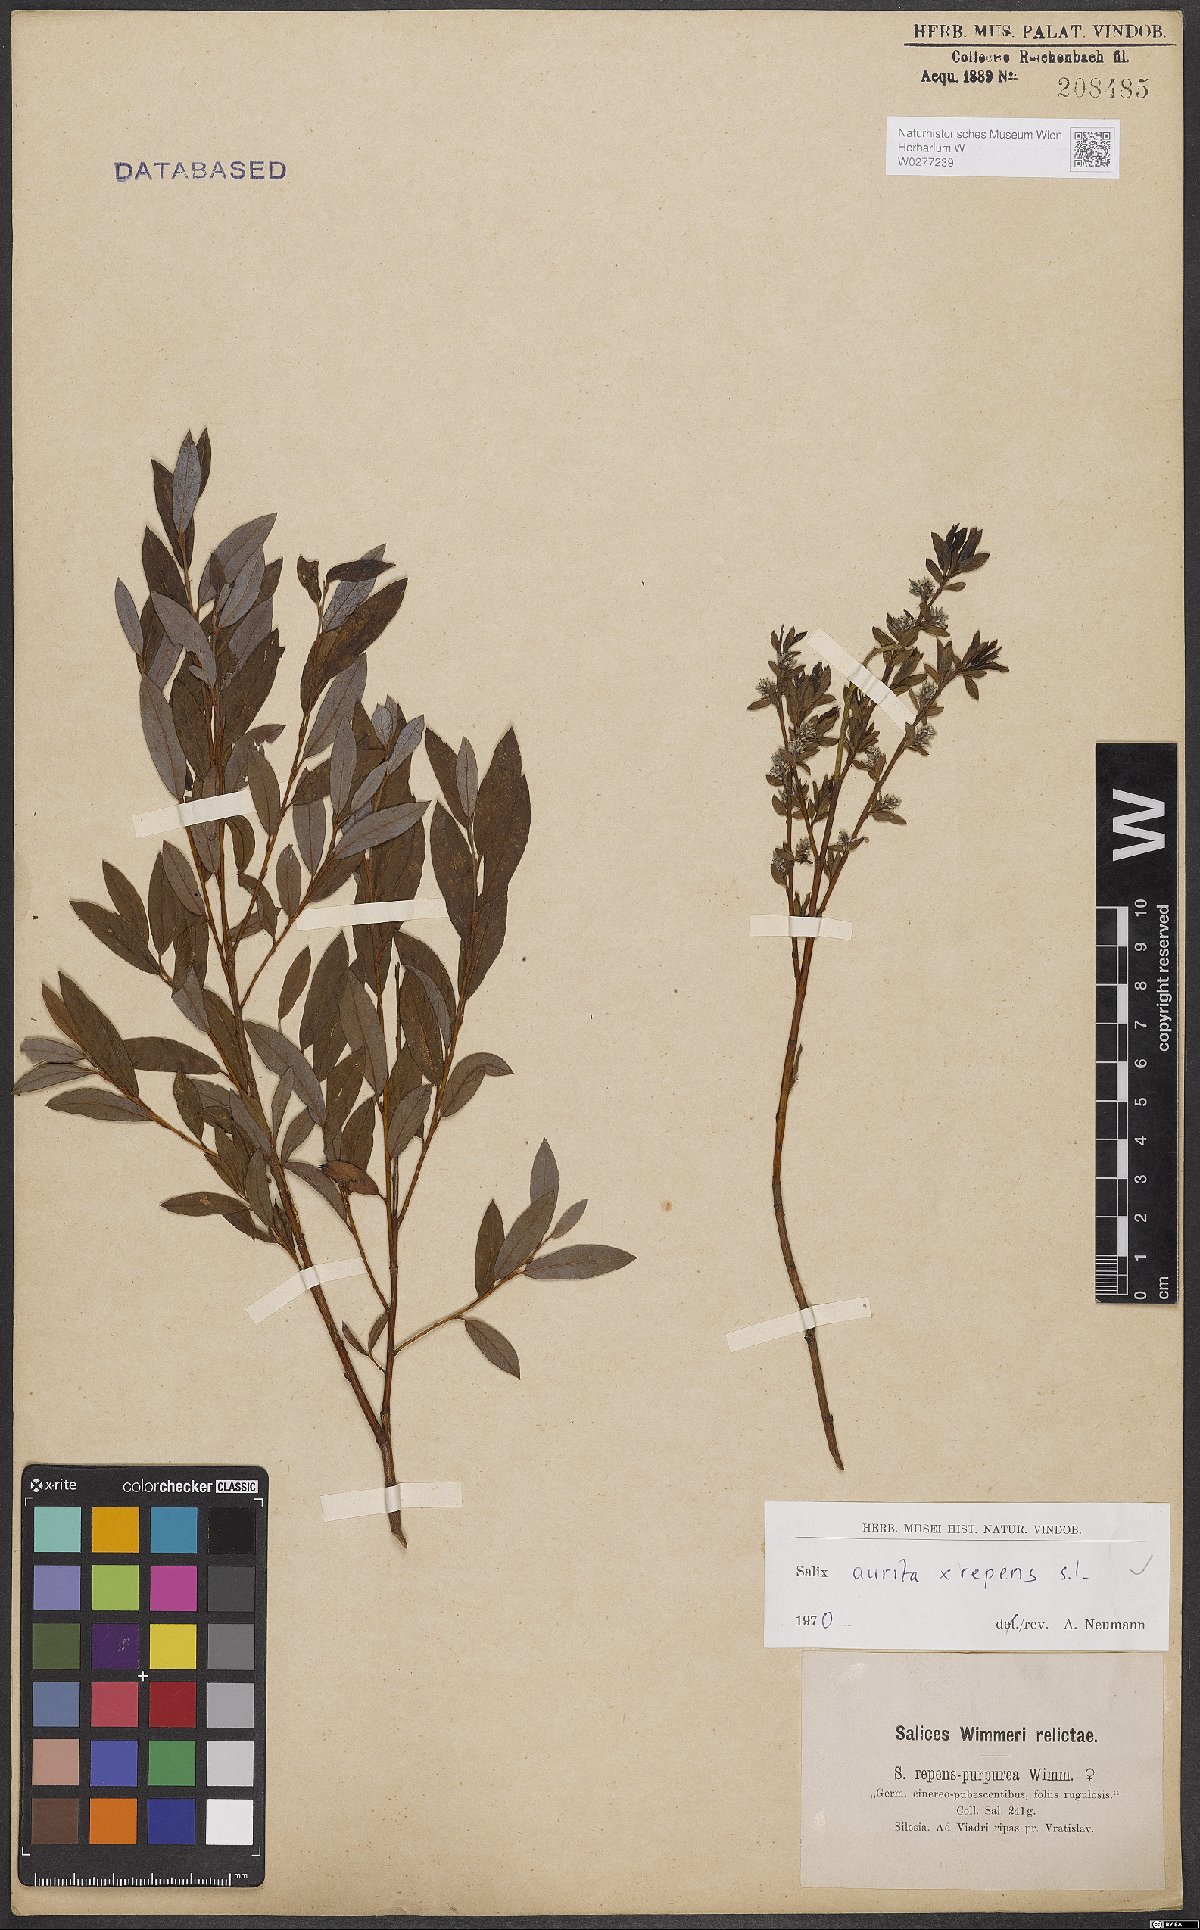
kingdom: Plantae
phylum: Tracheophyta
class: Magnoliopsida
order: Malpighiales
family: Salicaceae
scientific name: Salicaceae
